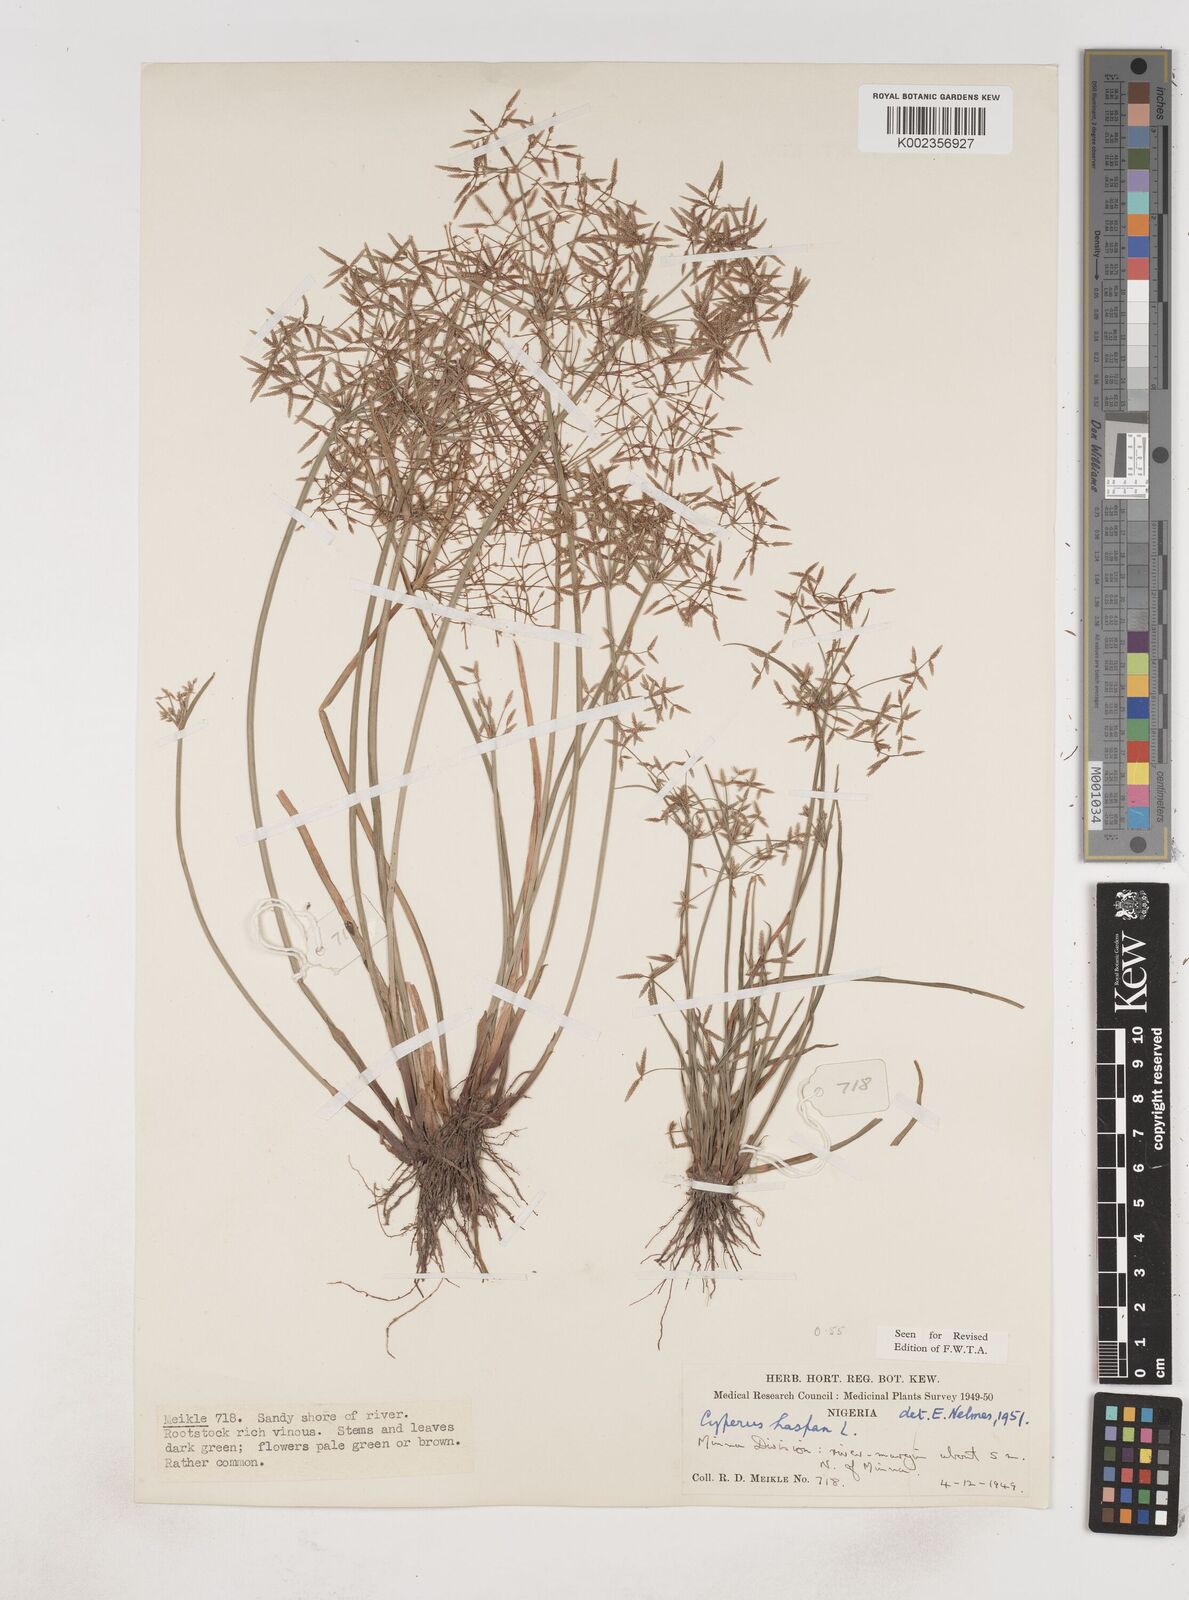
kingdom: Plantae
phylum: Tracheophyta
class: Liliopsida
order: Poales
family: Cyperaceae
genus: Cyperus
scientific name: Cyperus haspan
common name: Haspan flatsedge
